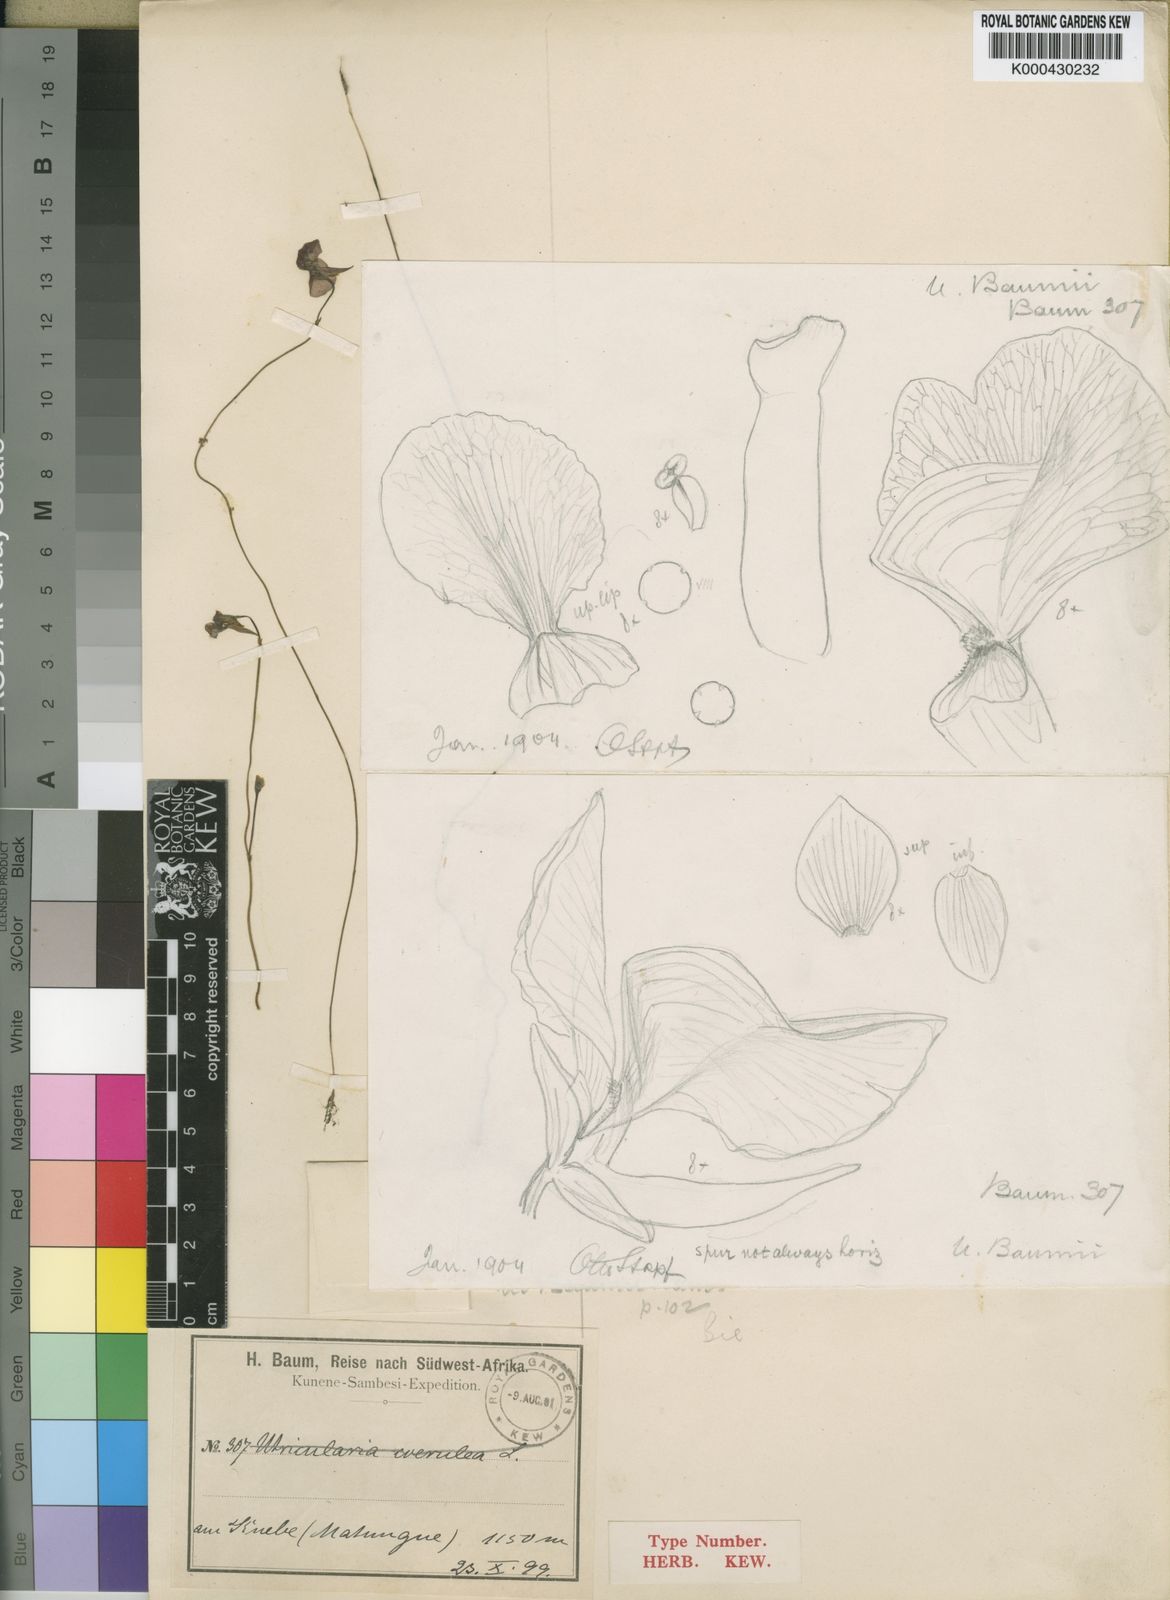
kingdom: Plantae
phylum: Tracheophyta
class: Magnoliopsida
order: Lamiales
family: Lentibulariaceae
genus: Utricularia
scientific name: Utricularia spiralis
